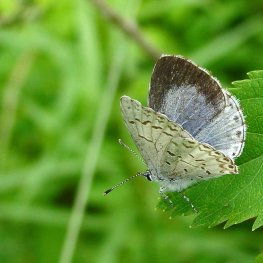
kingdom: Animalia
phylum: Arthropoda
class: Insecta
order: Lepidoptera
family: Lycaenidae
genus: Celastrina
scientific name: Celastrina lucia
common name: Northern Spring Azure
